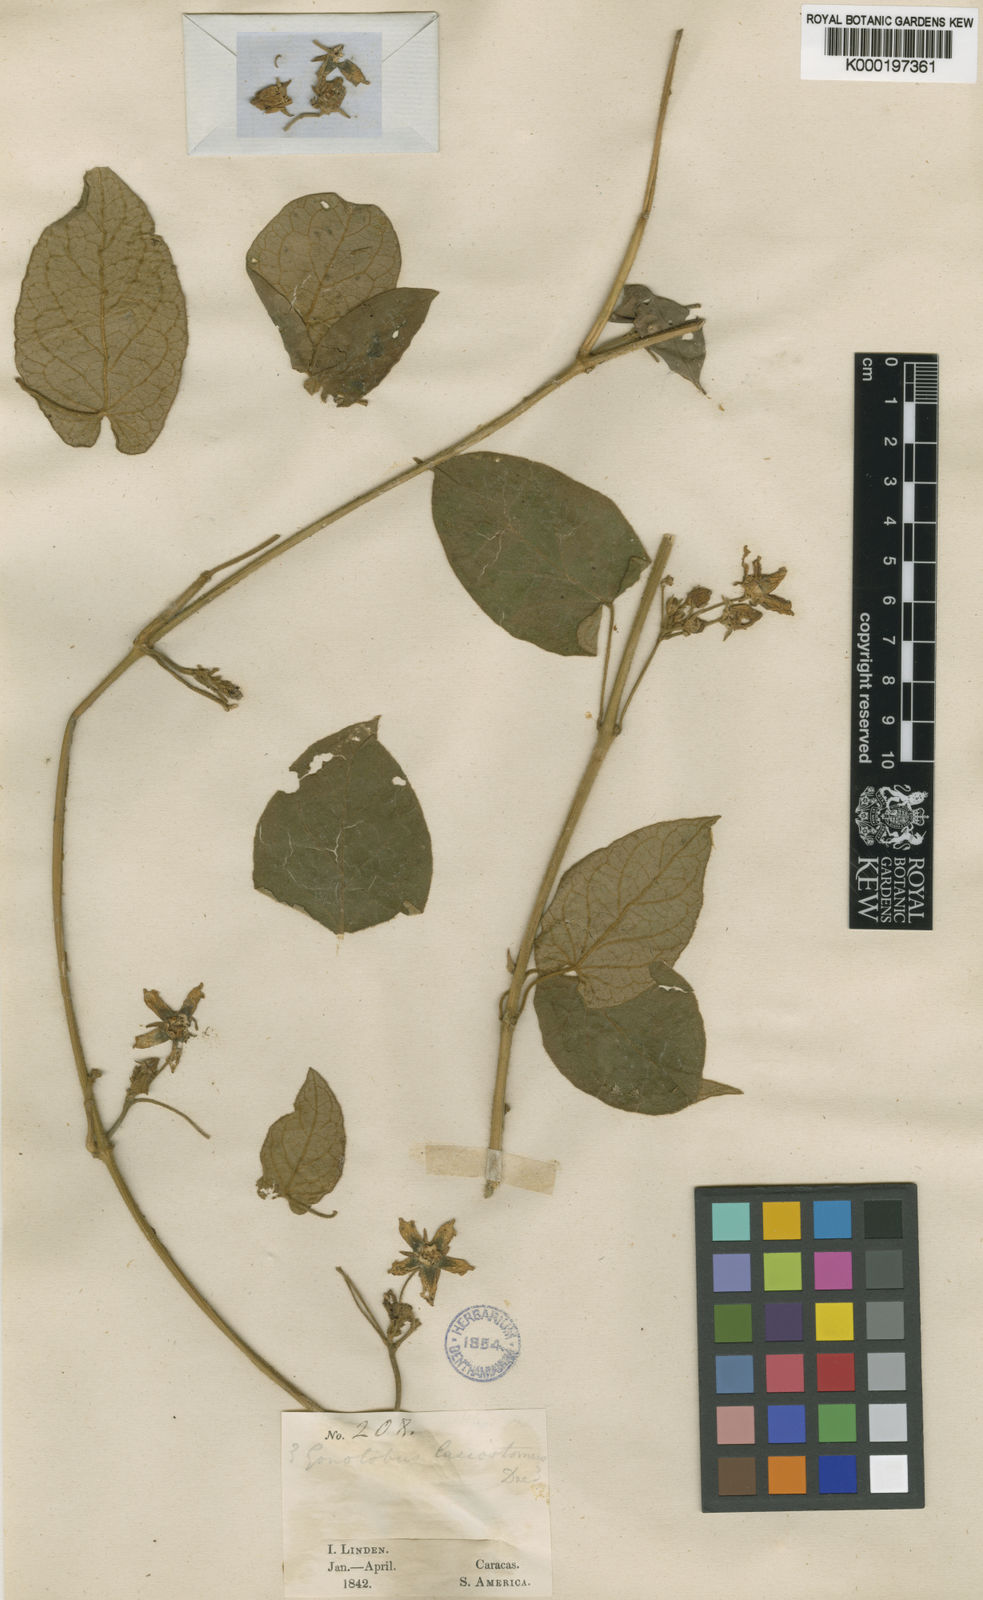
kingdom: Plantae
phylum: Tracheophyta
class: Magnoliopsida
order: Gentianales
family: Apocynaceae
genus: Gonolobus
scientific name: Gonolobus lasiostomus
